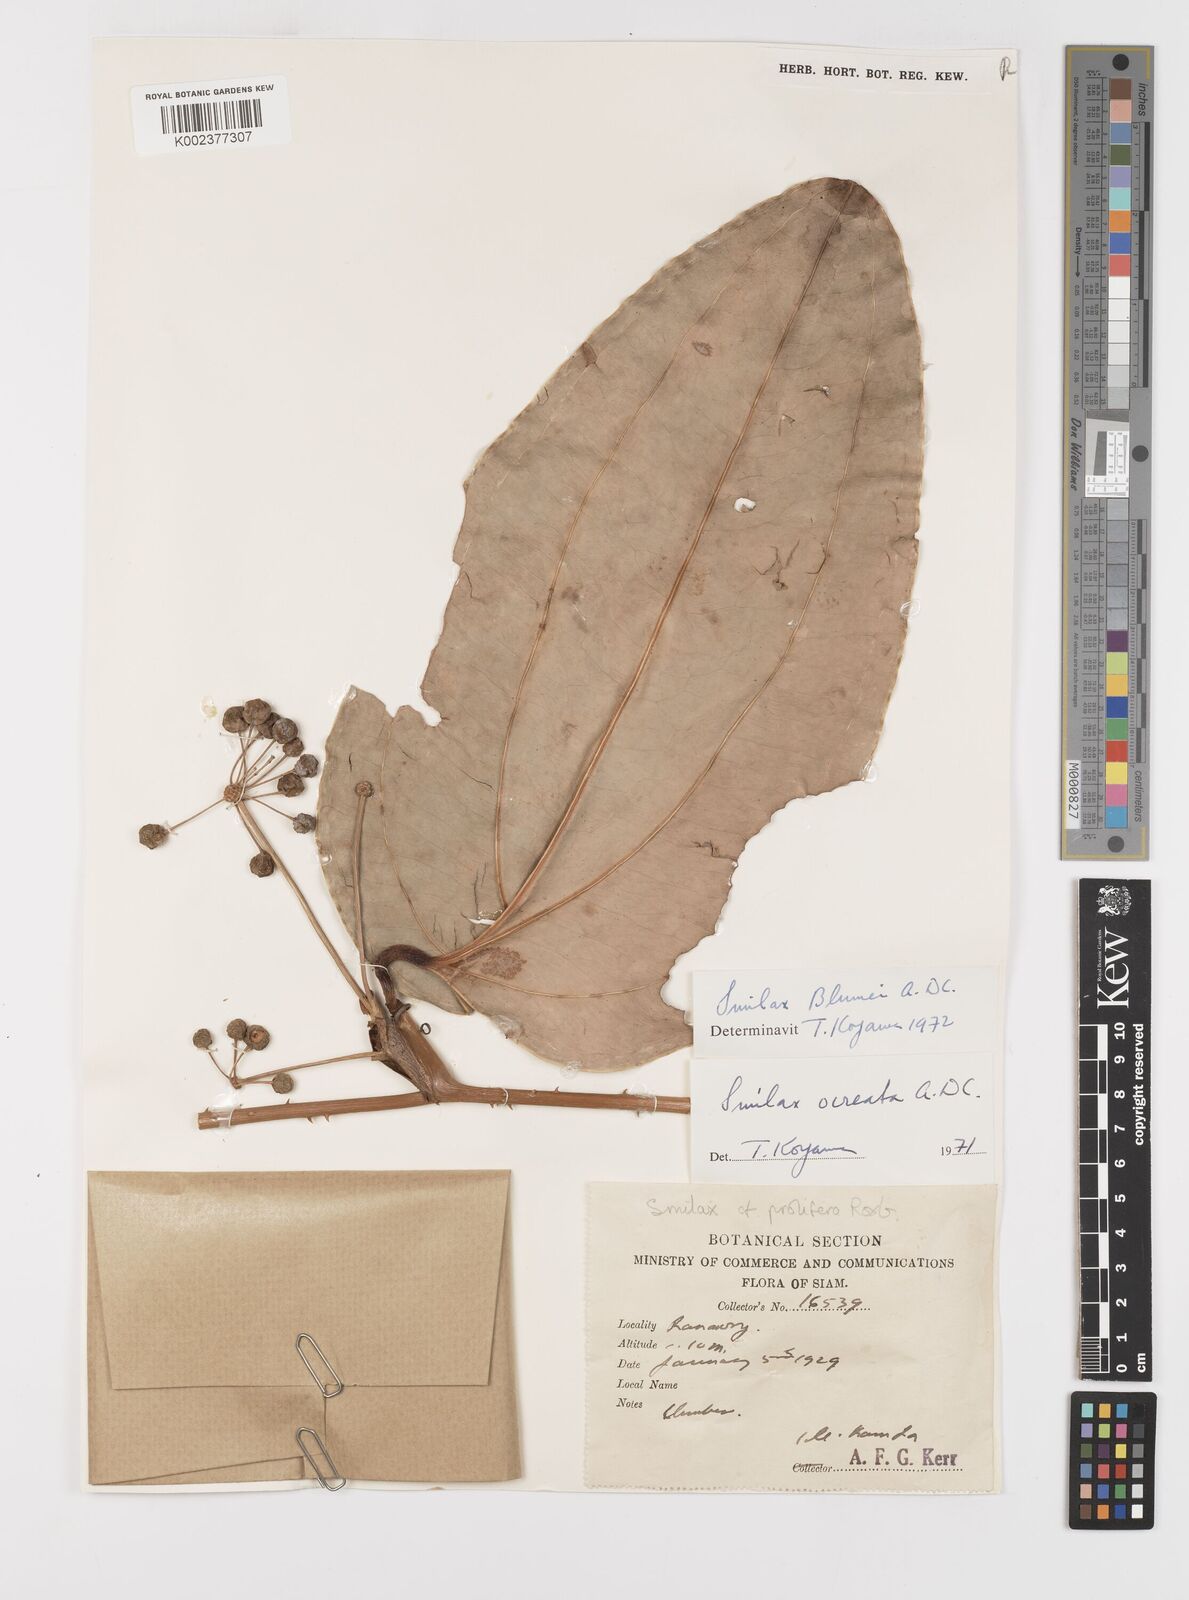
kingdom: Plantae
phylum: Tracheophyta
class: Liliopsida
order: Liliales
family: Smilacaceae
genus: Smilax
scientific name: Smilax ocreata
